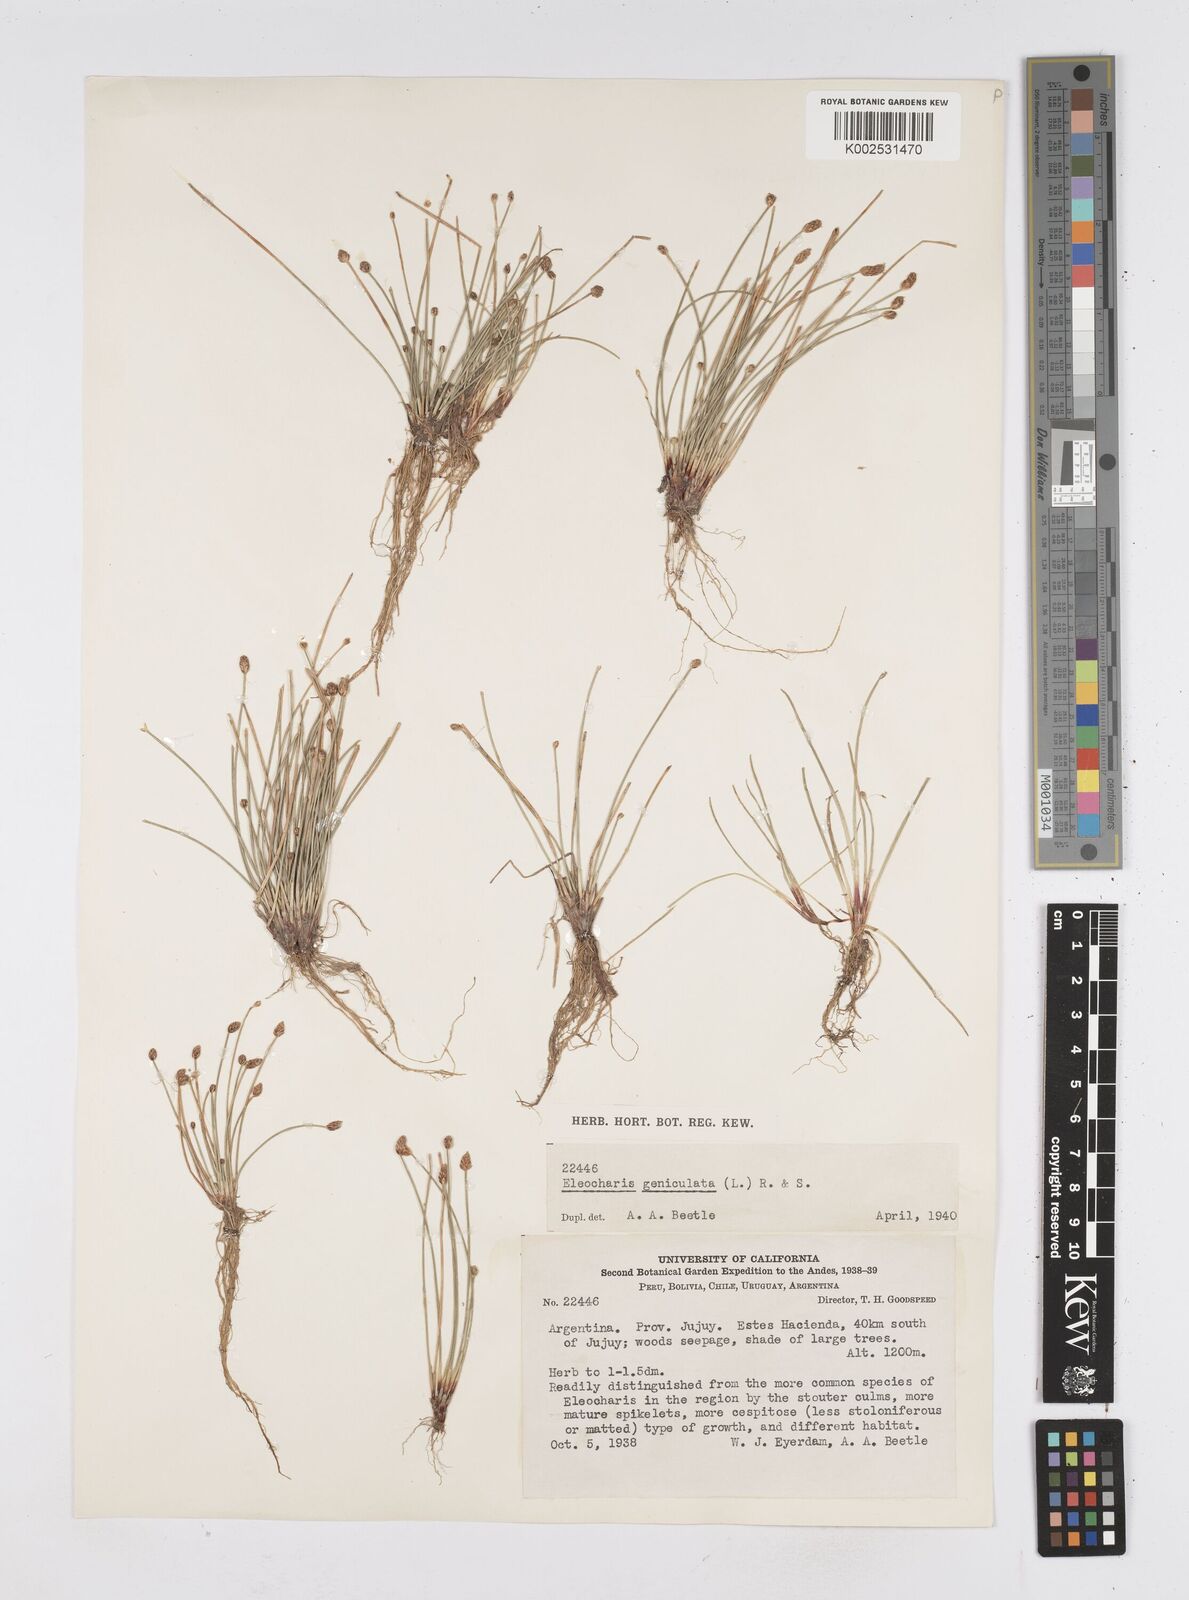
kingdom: Plantae
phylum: Tracheophyta
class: Liliopsida
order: Poales
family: Cyperaceae
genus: Eleocharis
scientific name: Eleocharis geniculata
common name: Canada spikesedge
